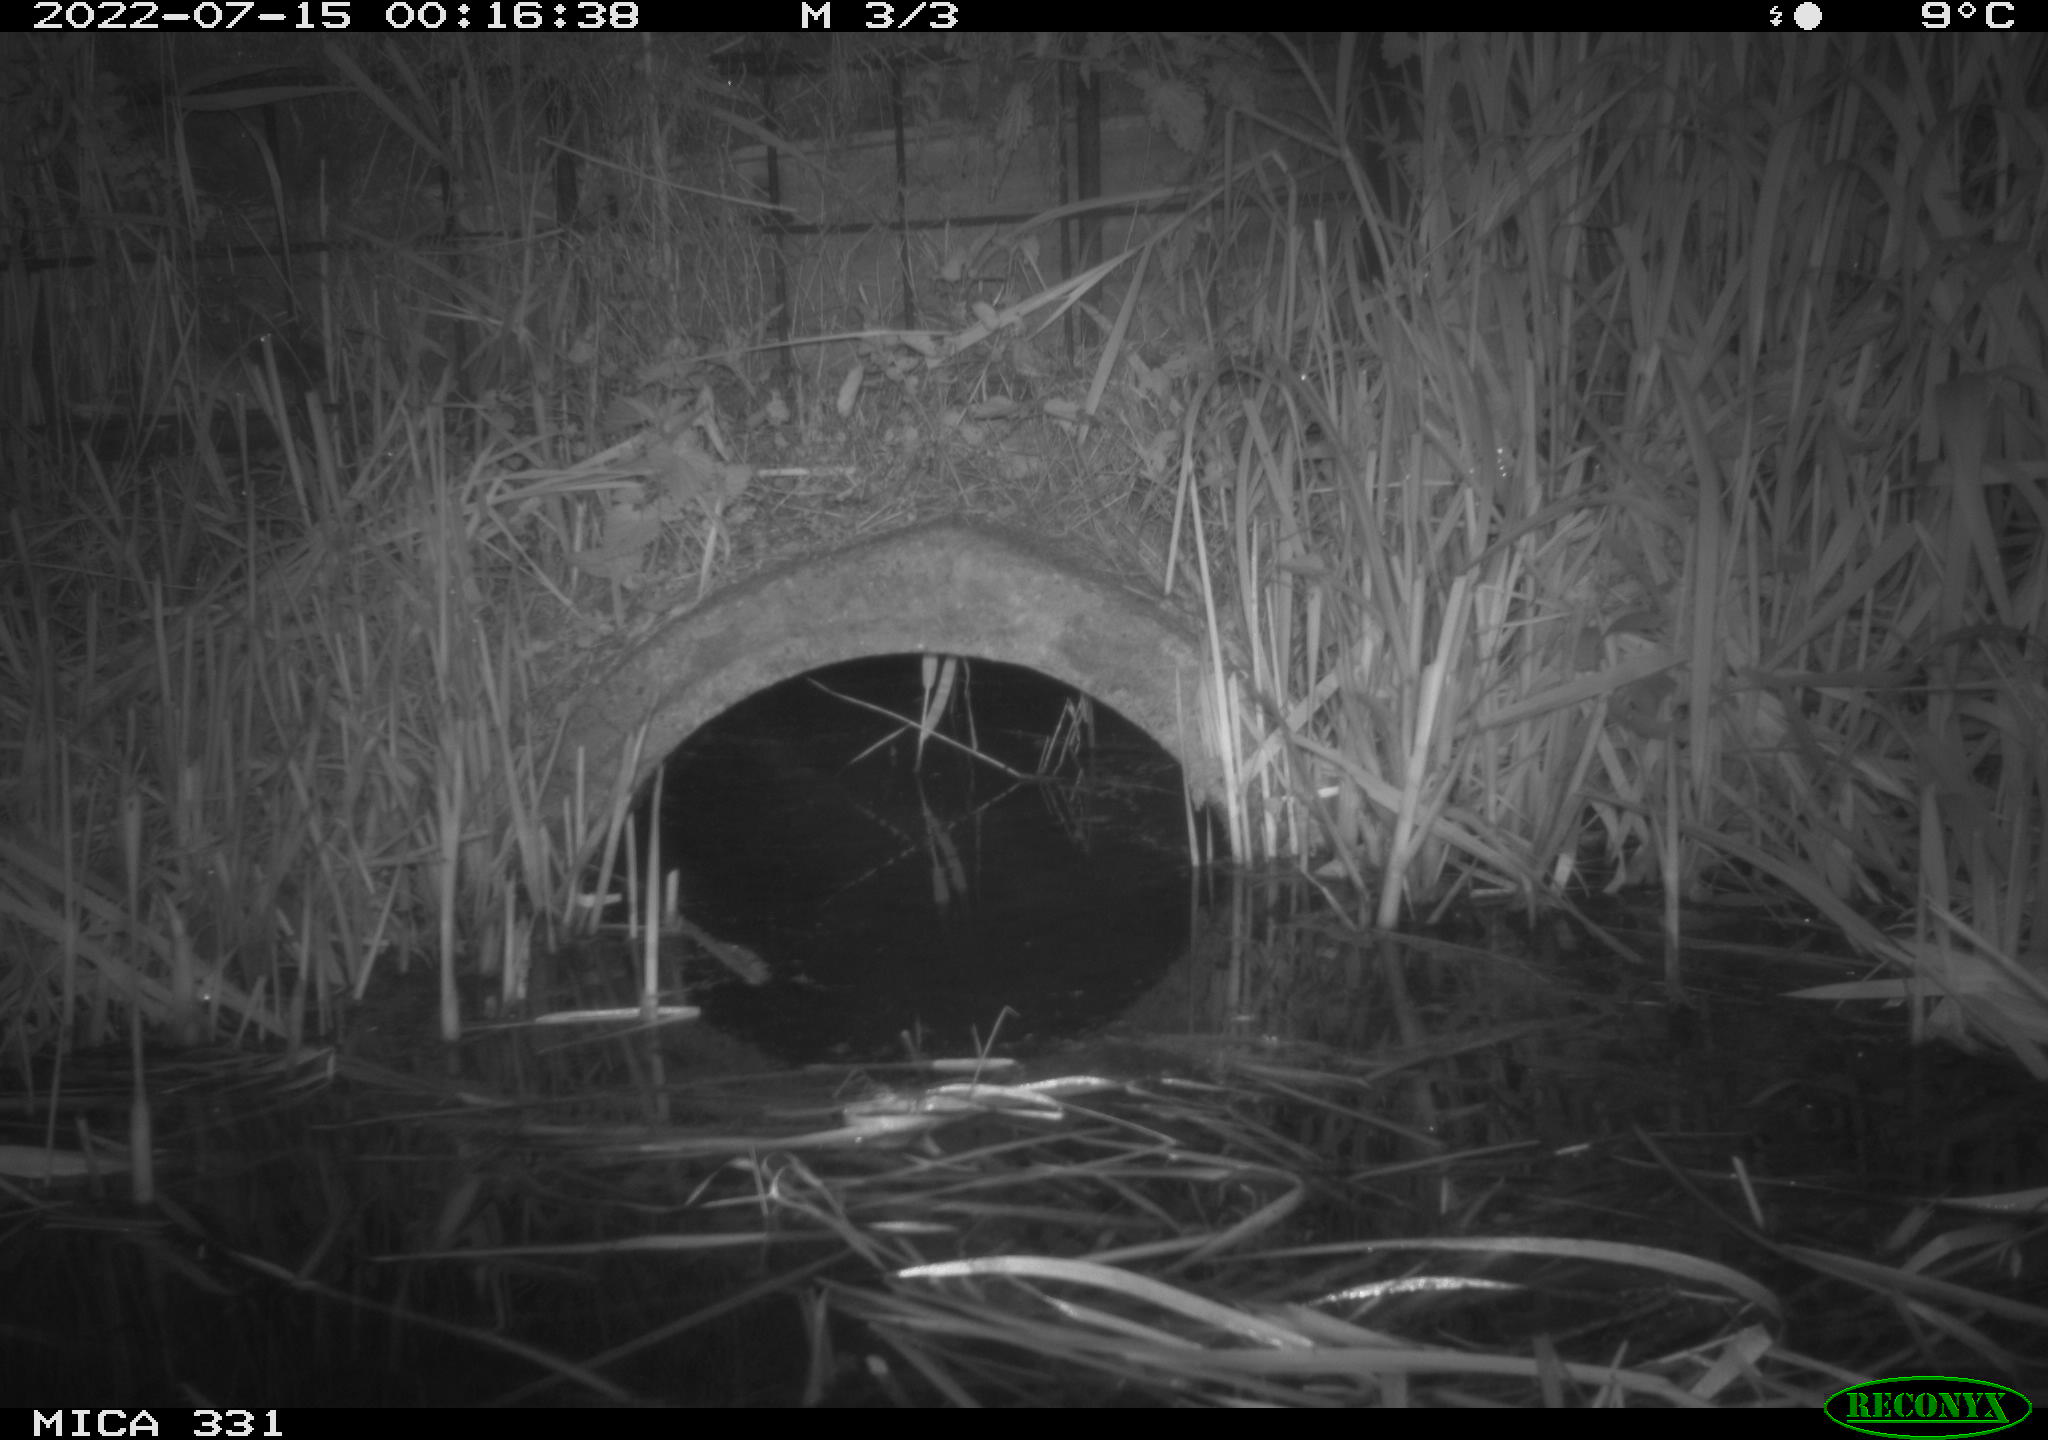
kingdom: Animalia
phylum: Chordata
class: Mammalia
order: Rodentia
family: Muridae
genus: Rattus
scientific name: Rattus norvegicus
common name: Brown rat
